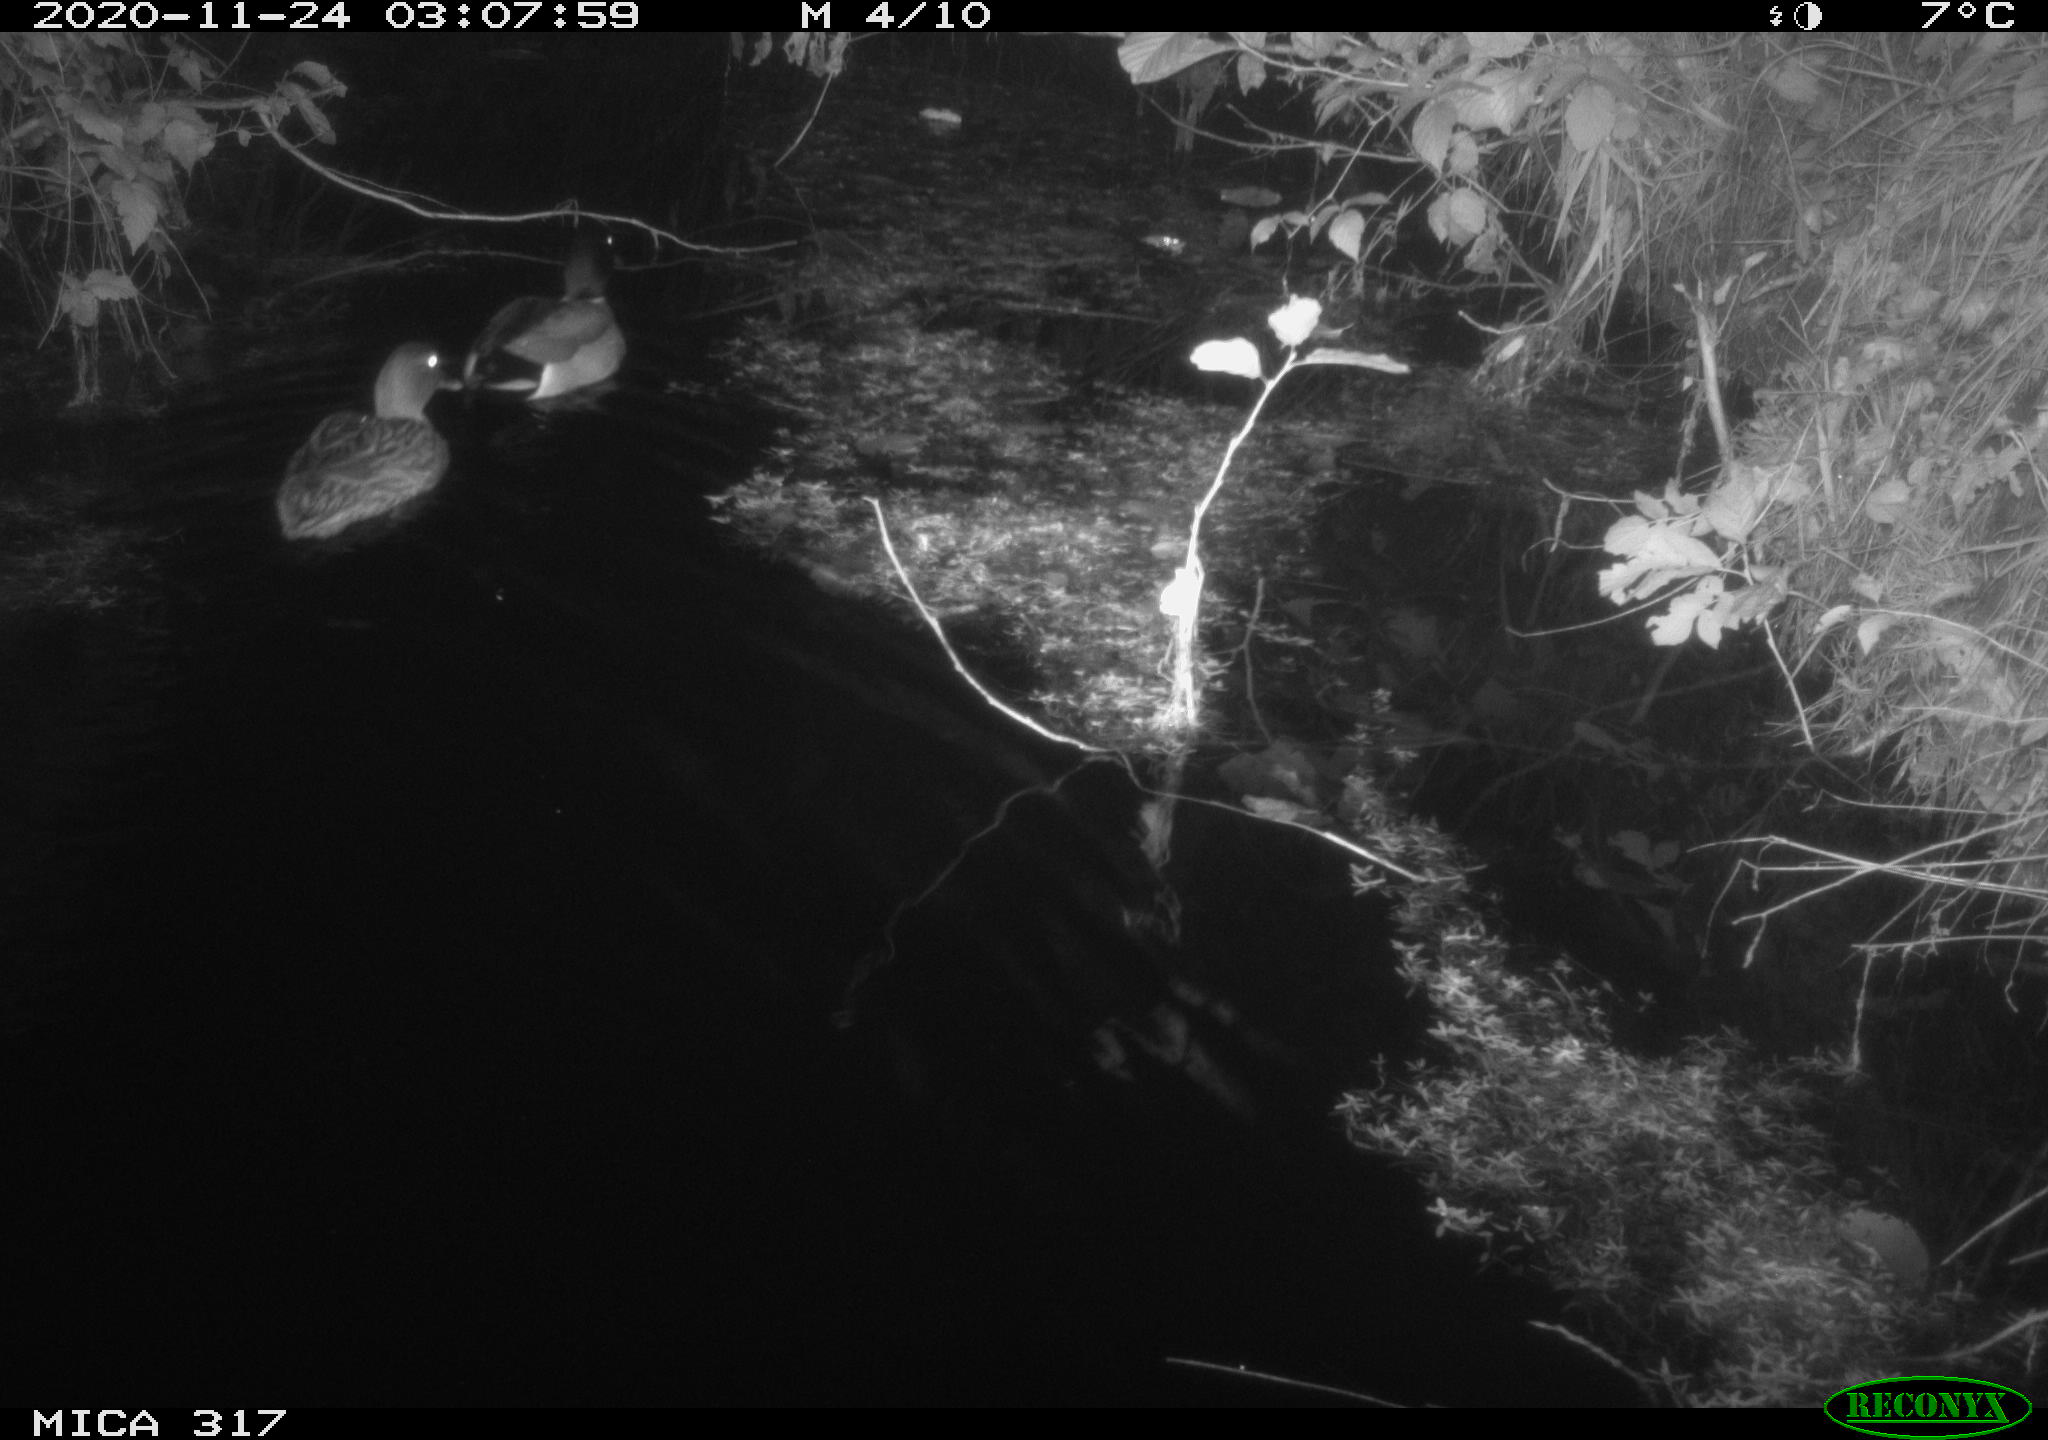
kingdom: Animalia
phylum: Chordata
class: Aves
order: Anseriformes
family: Anatidae
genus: Anas
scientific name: Anas platyrhynchos
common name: Mallard
